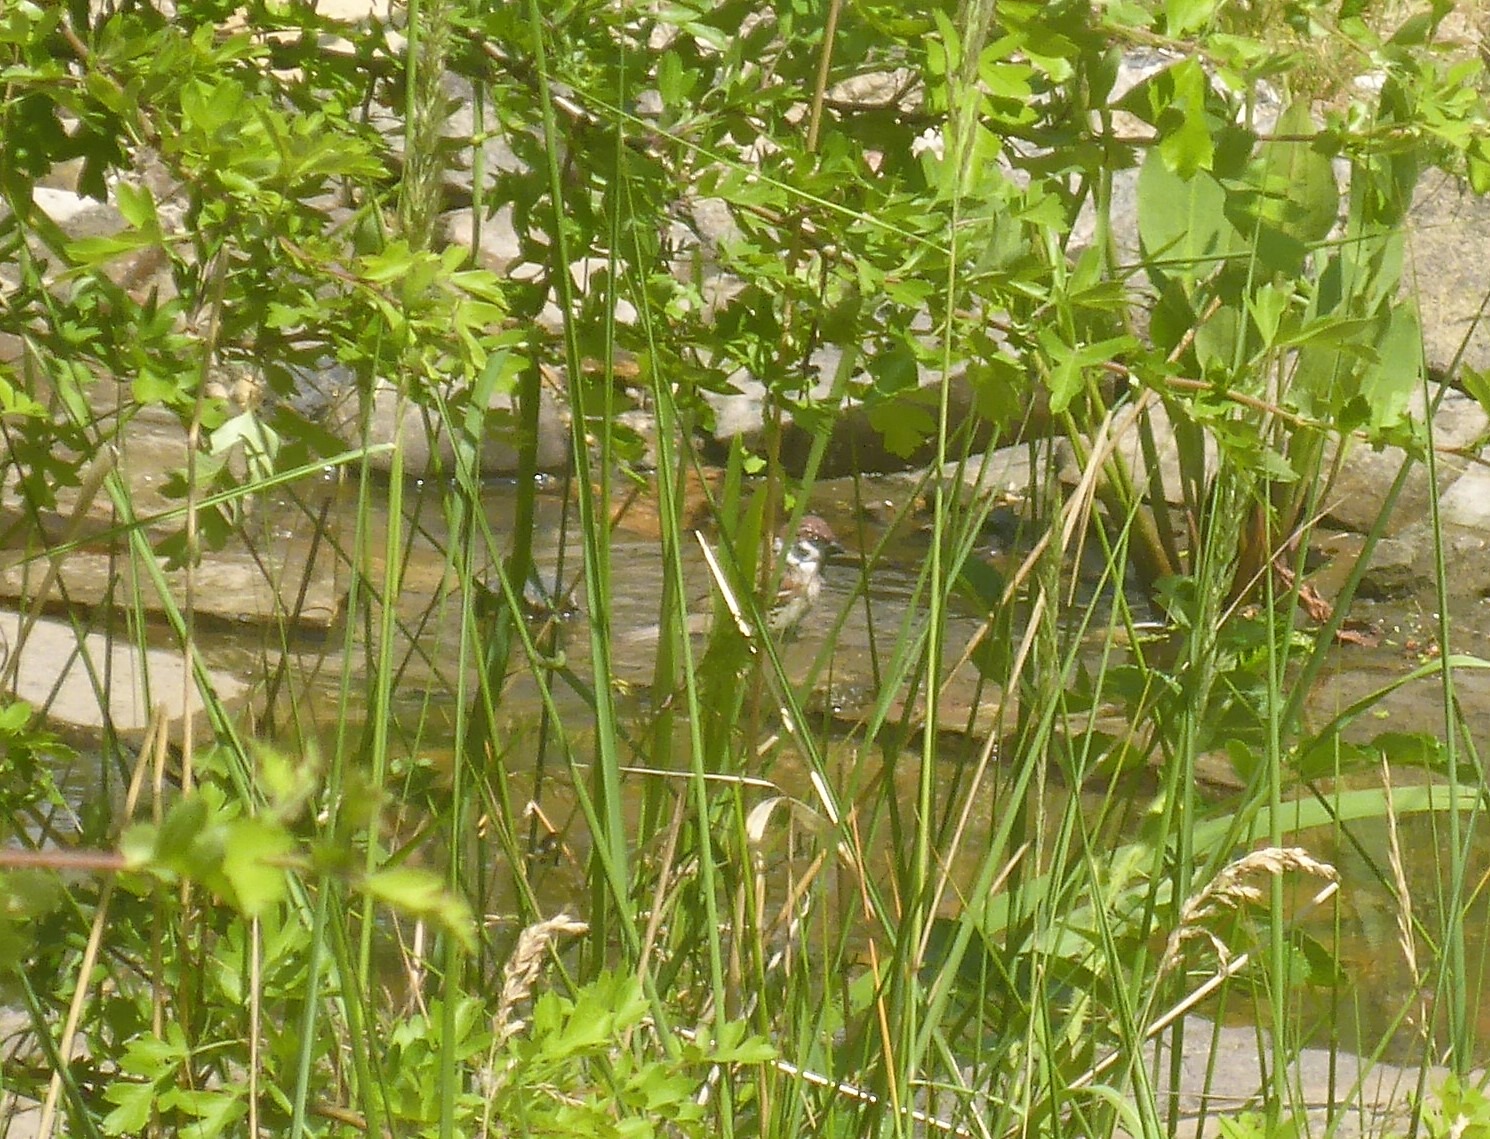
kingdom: Animalia
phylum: Chordata
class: Aves
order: Passeriformes
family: Passeridae
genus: Passer
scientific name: Passer montanus
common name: Skovspurv
